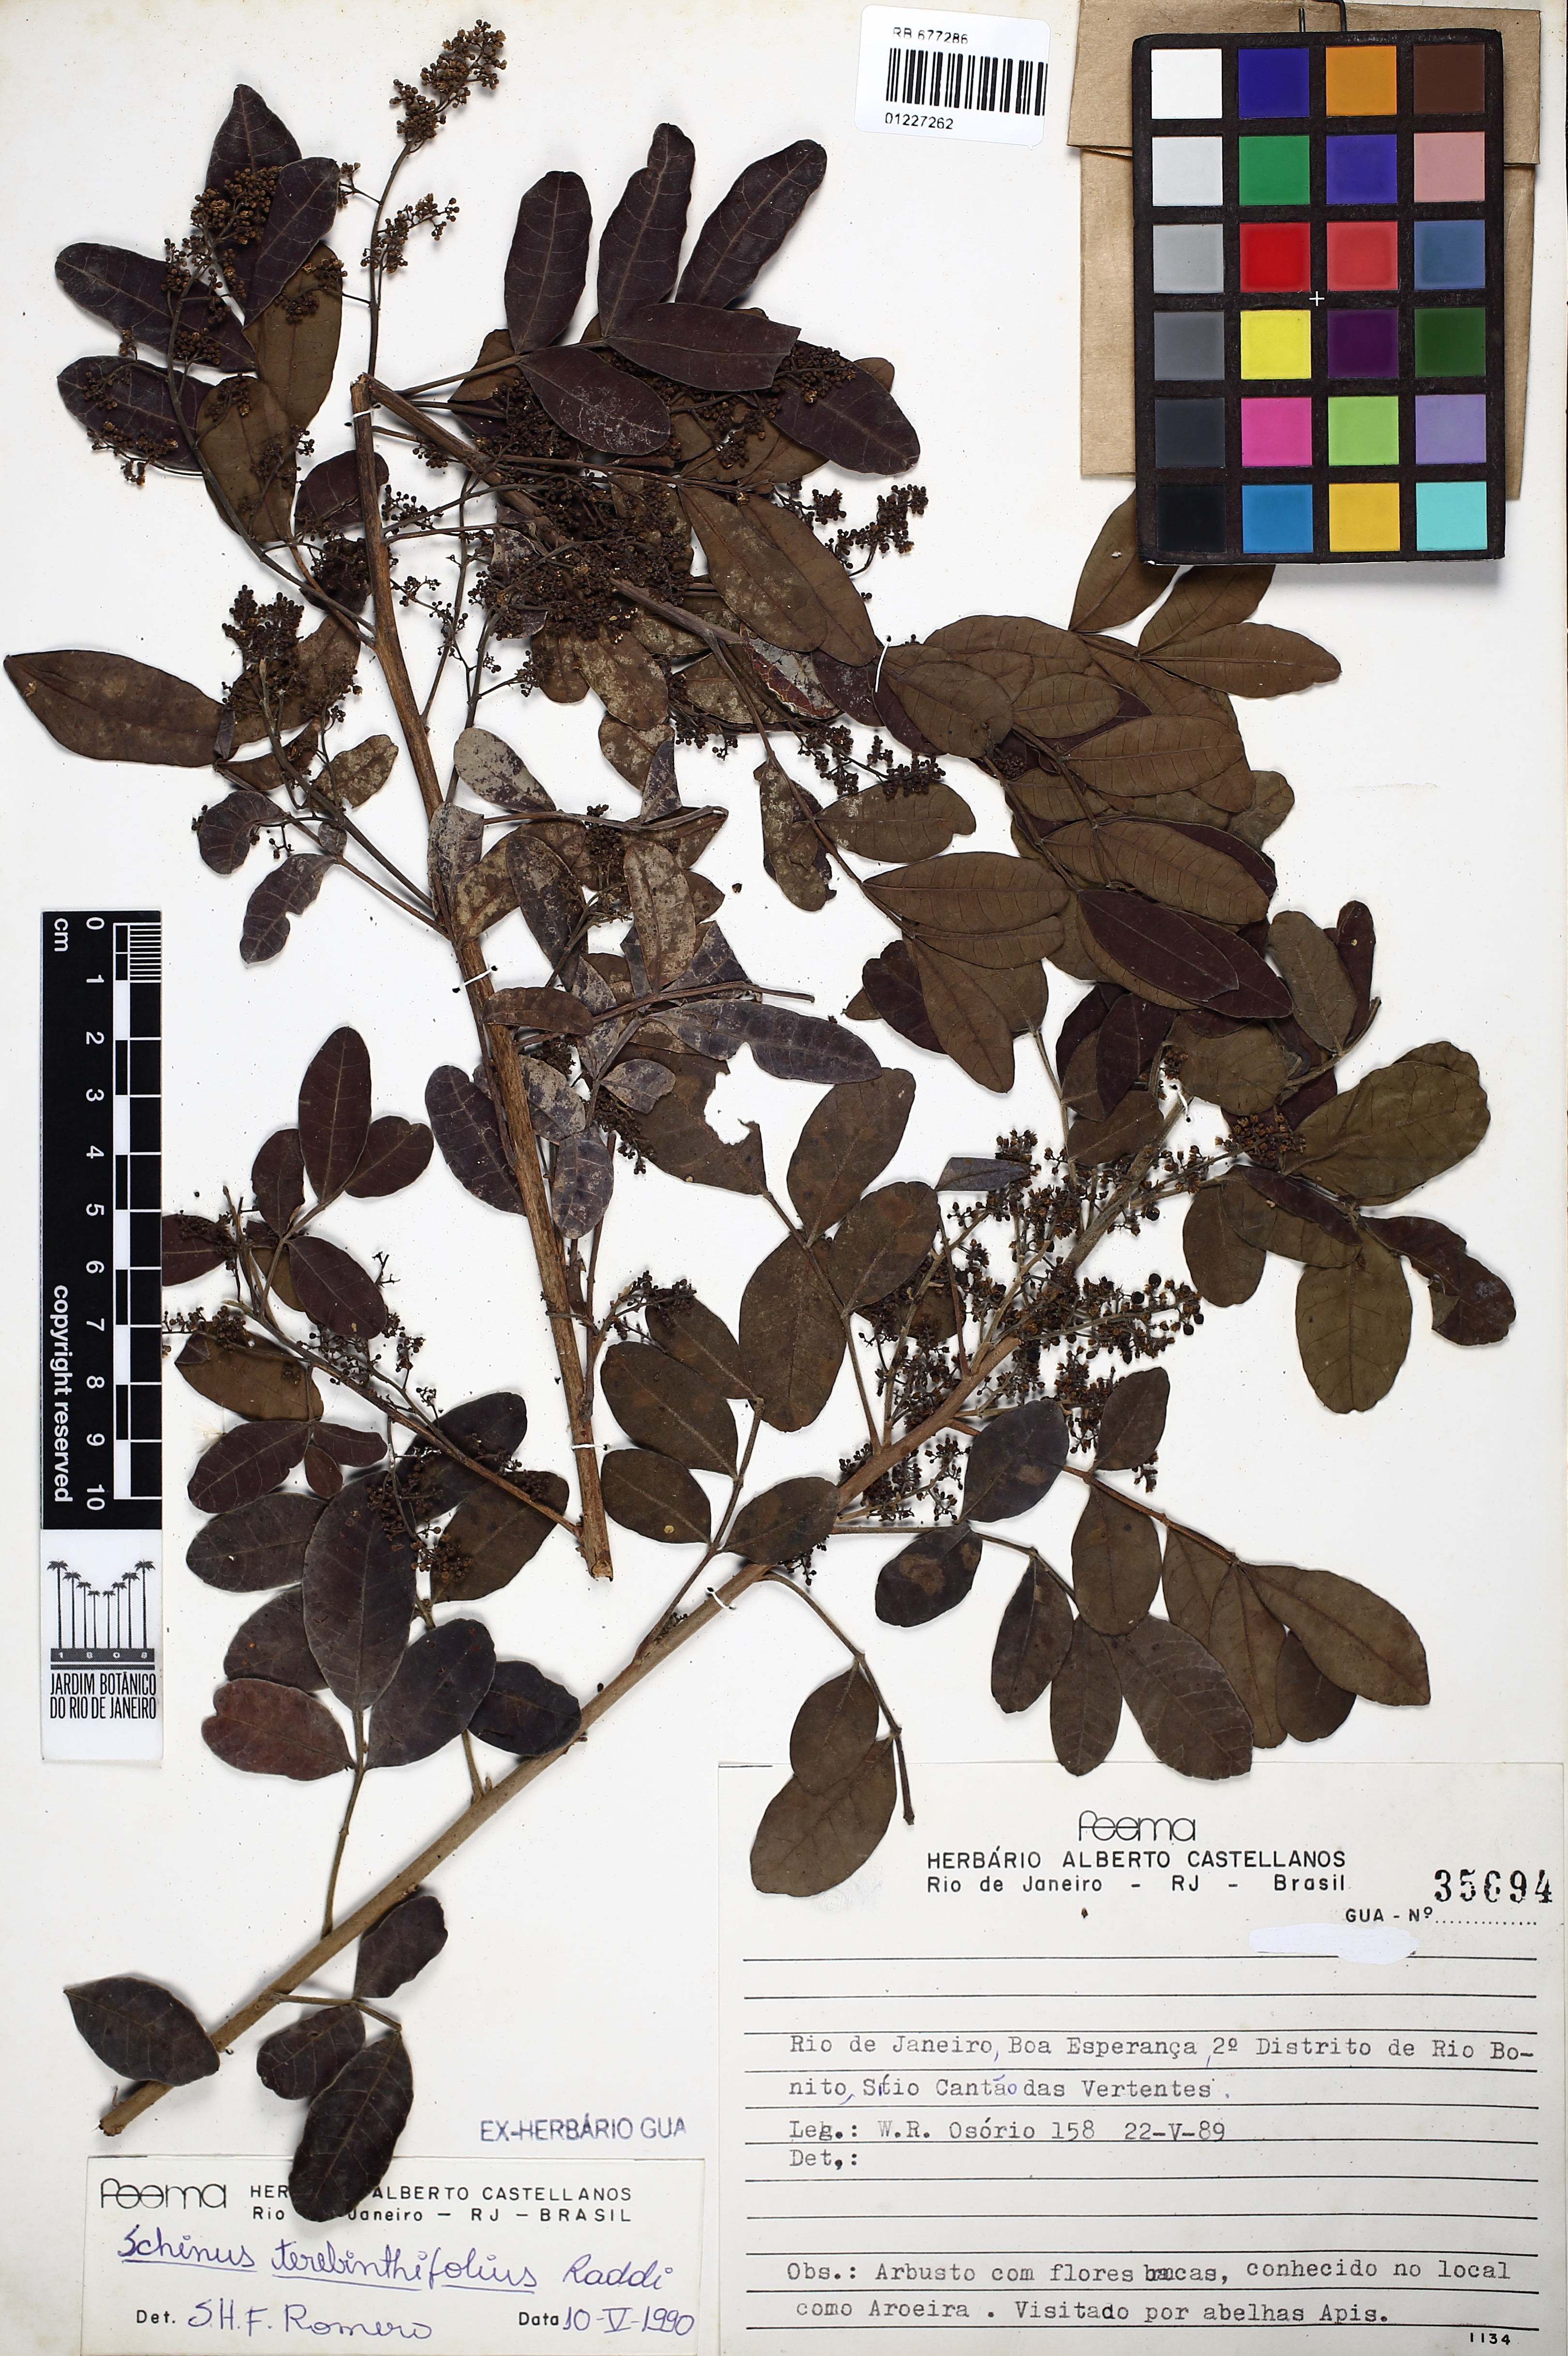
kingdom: Plantae
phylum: Tracheophyta
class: Magnoliopsida
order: Sapindales
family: Anacardiaceae
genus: Schinus
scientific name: Schinus terebinthifolia
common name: Brazilian peppertree
